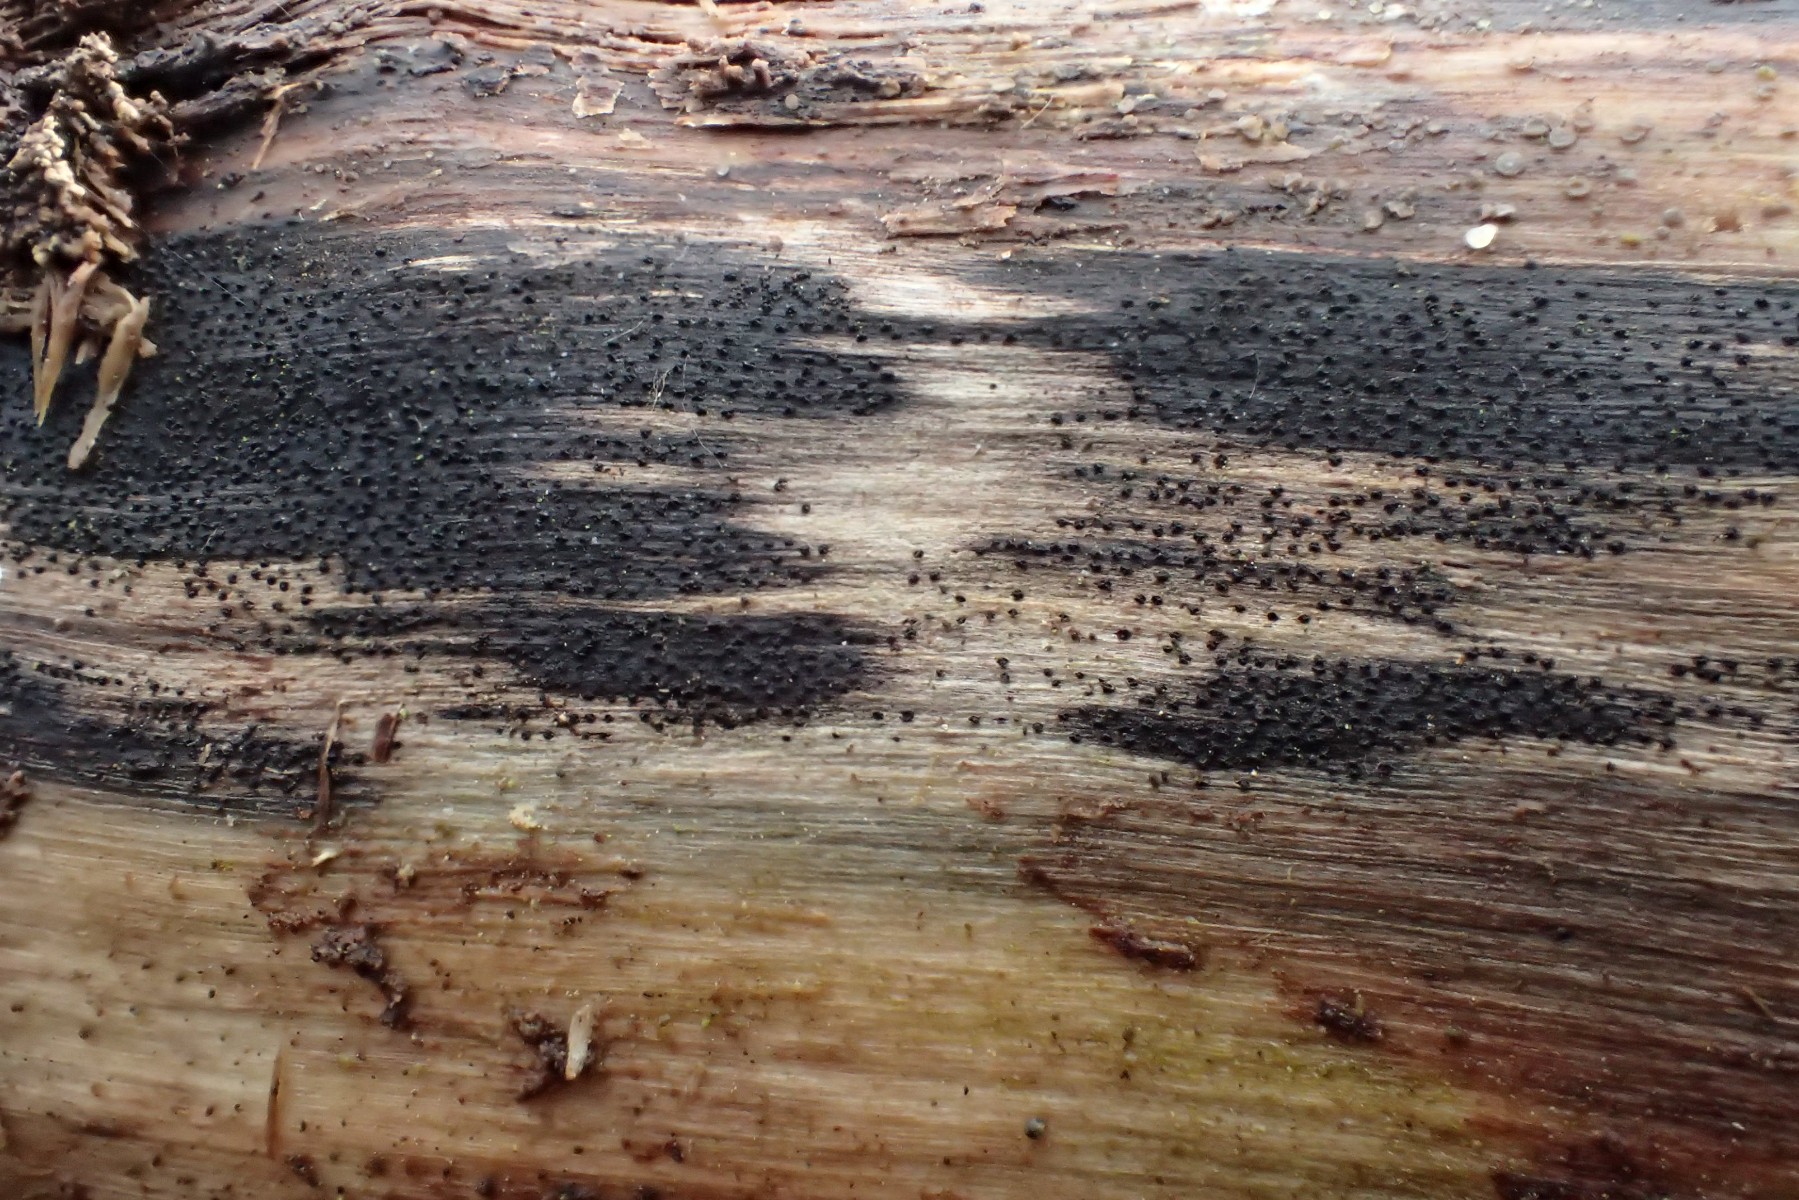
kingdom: Fungi
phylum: Ascomycota
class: Sordariomycetes
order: Xylariales
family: Diatrypaceae
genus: Eutypa
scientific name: Eutypa sparsa
